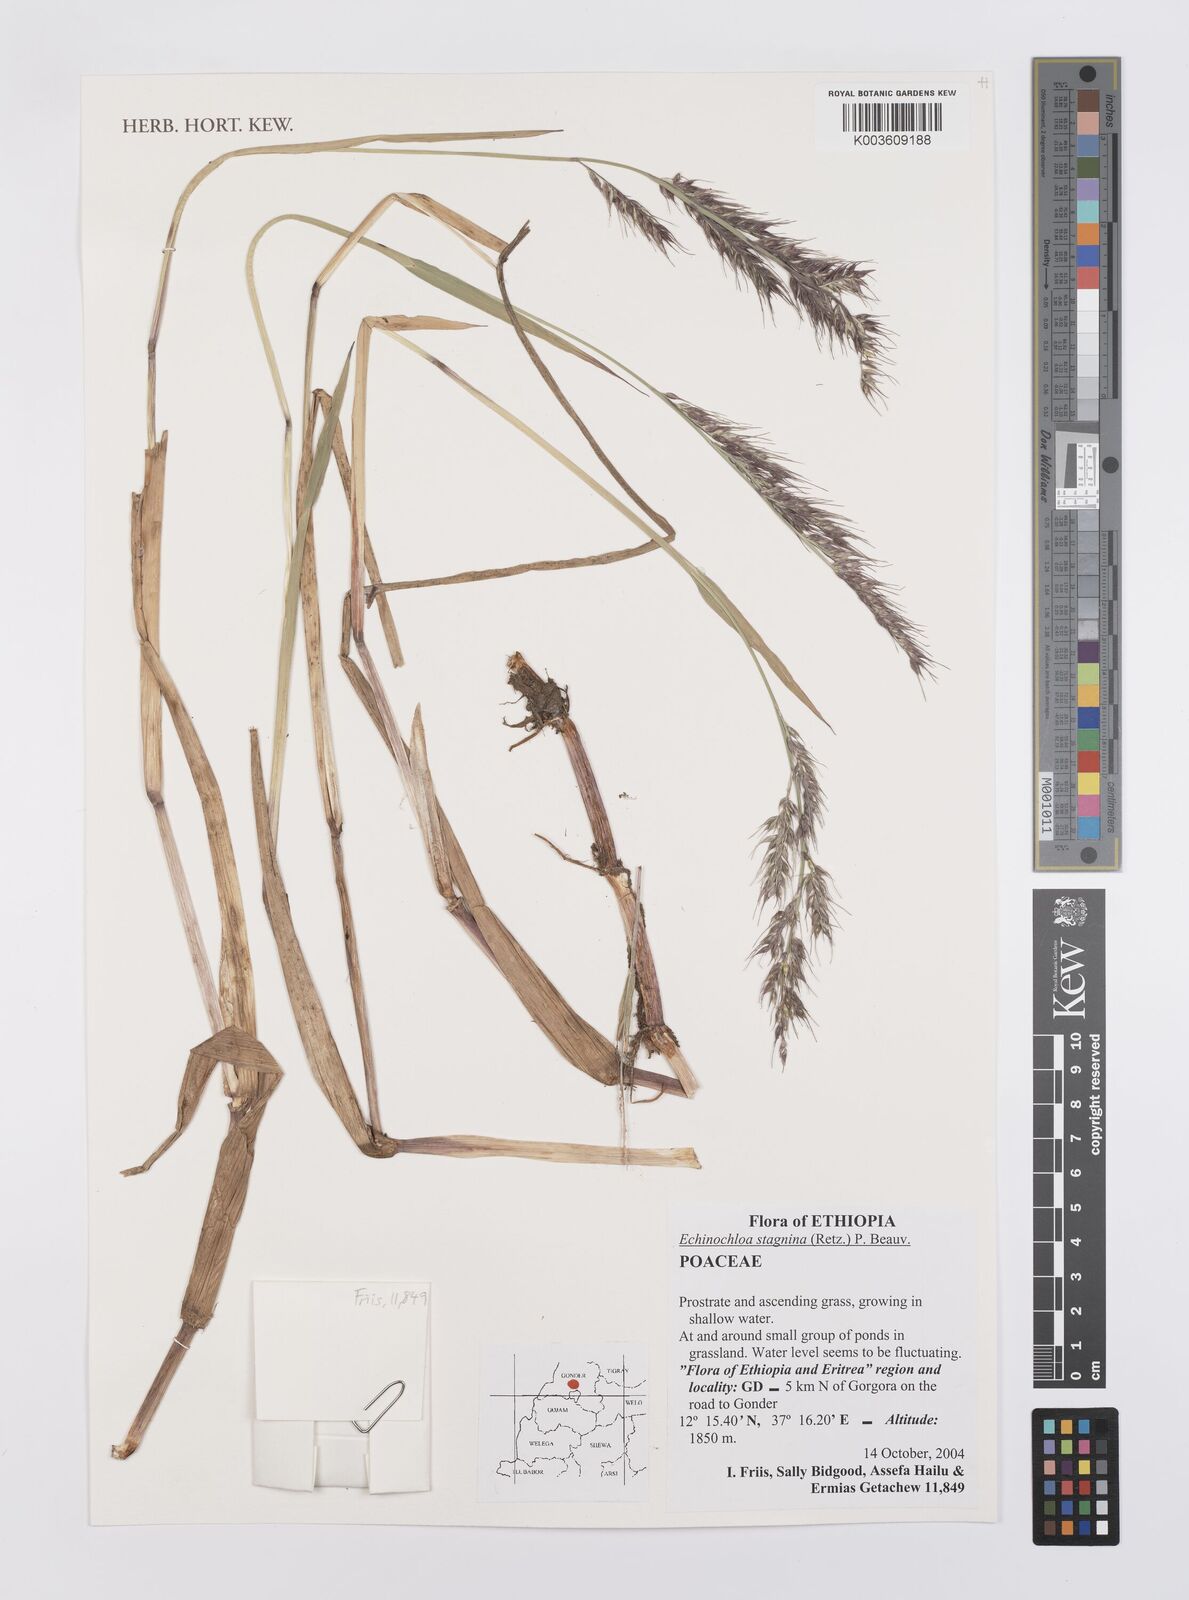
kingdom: Plantae
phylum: Tracheophyta
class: Liliopsida
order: Poales
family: Poaceae
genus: Echinochloa
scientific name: Echinochloa stagnina
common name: Burgu grass
